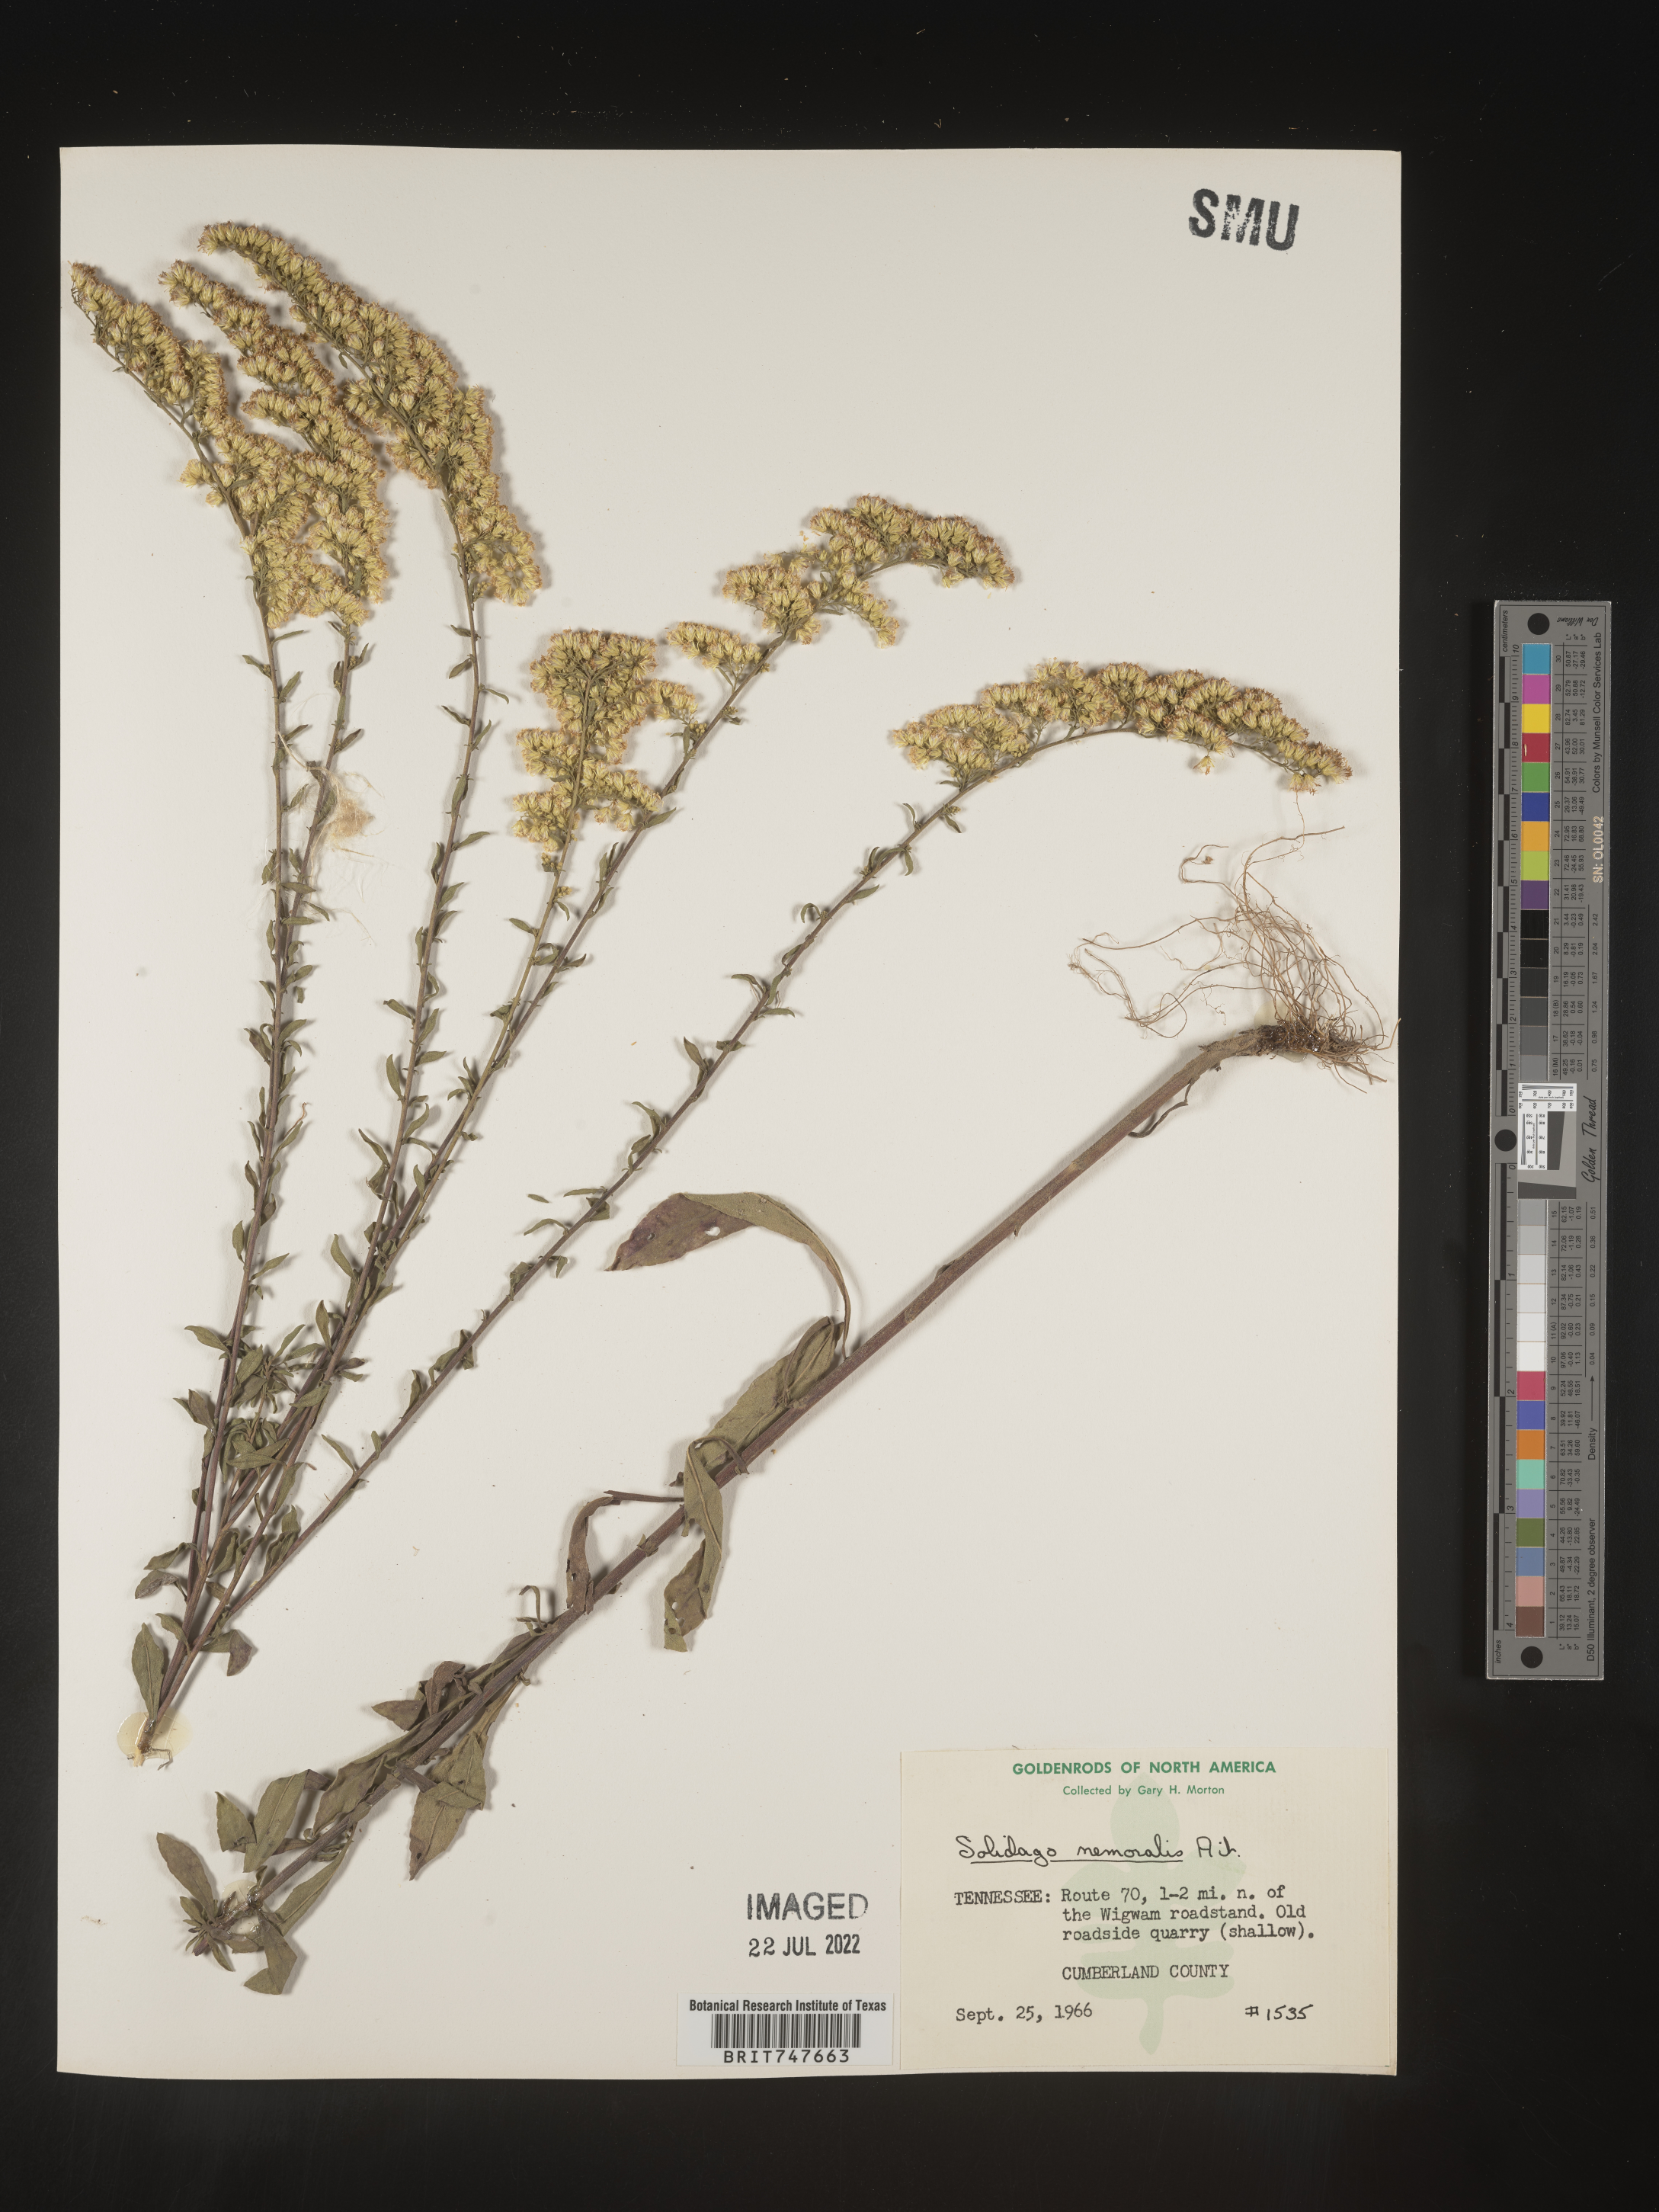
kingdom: Plantae
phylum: Tracheophyta
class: Magnoliopsida
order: Asterales
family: Asteraceae
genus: Solidago
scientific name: Solidago nemoralis
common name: Grey goldenrod
